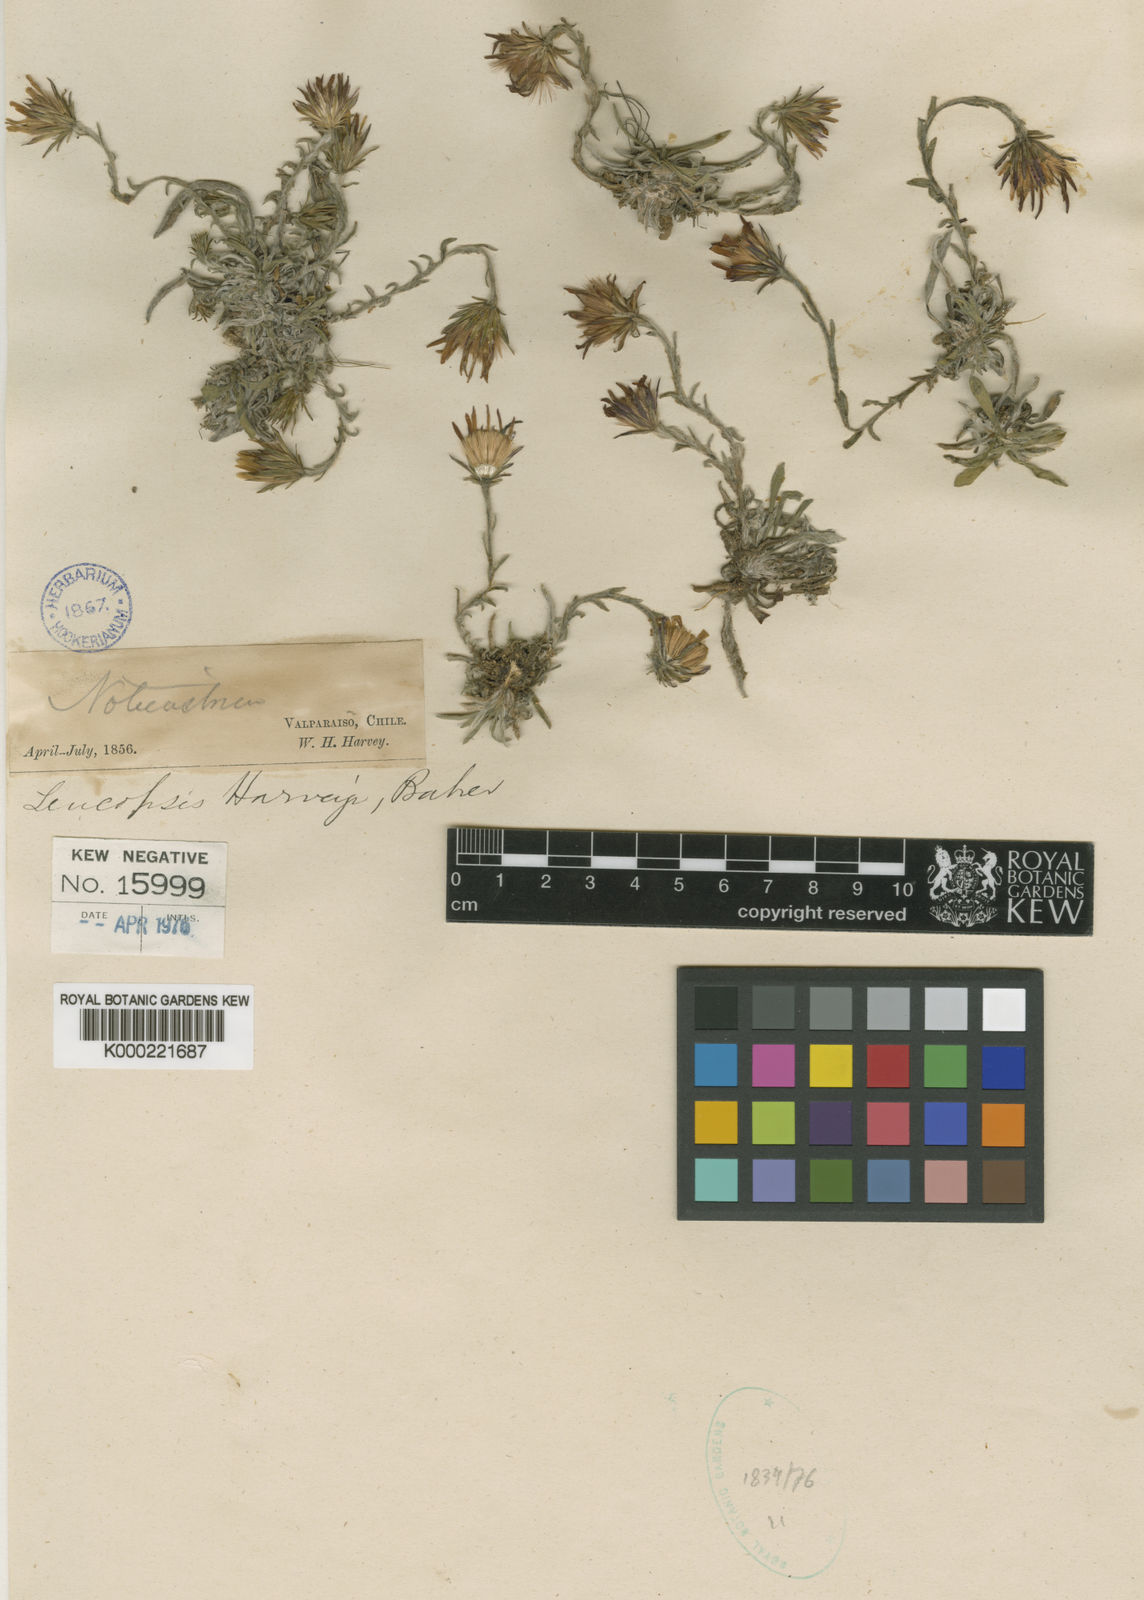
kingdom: Plantae
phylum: Tracheophyta
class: Magnoliopsida
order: Asterales
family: Asteraceae
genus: Noticastrum
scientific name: Noticastrum eriophorum
